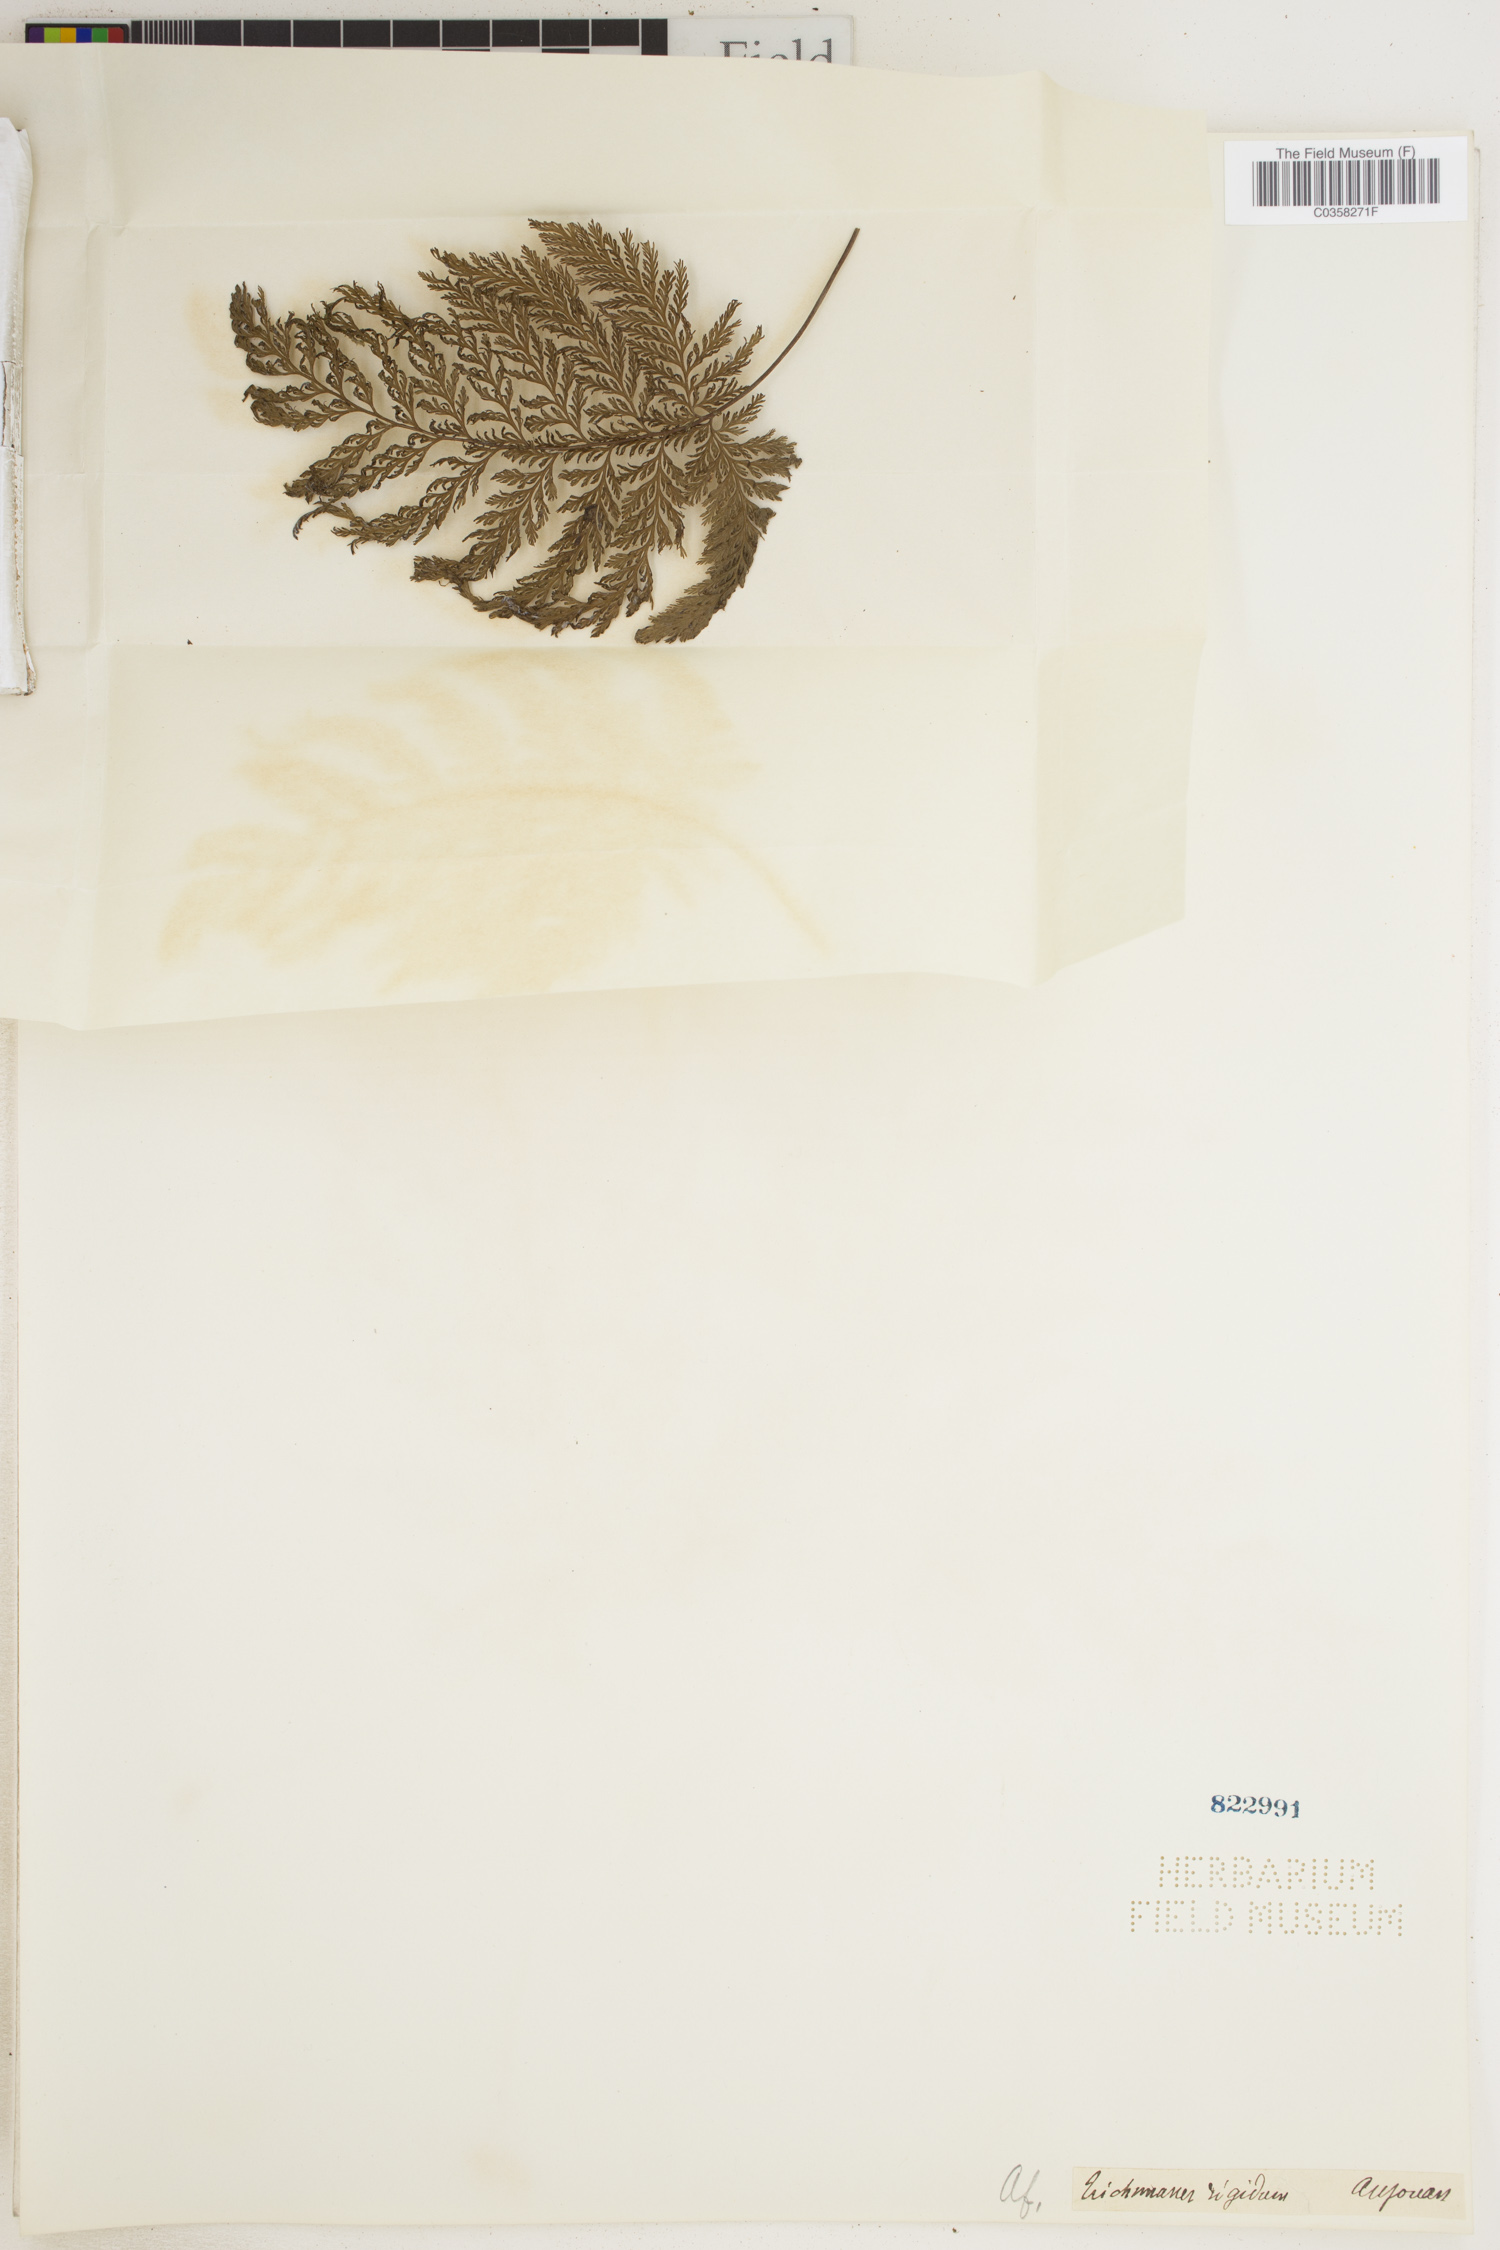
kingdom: Plantae
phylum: Tracheophyta
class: Polypodiopsida
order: Hymenophyllales
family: Hymenophyllaceae
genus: Abrodictyum
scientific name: Abrodictyum rigidum
